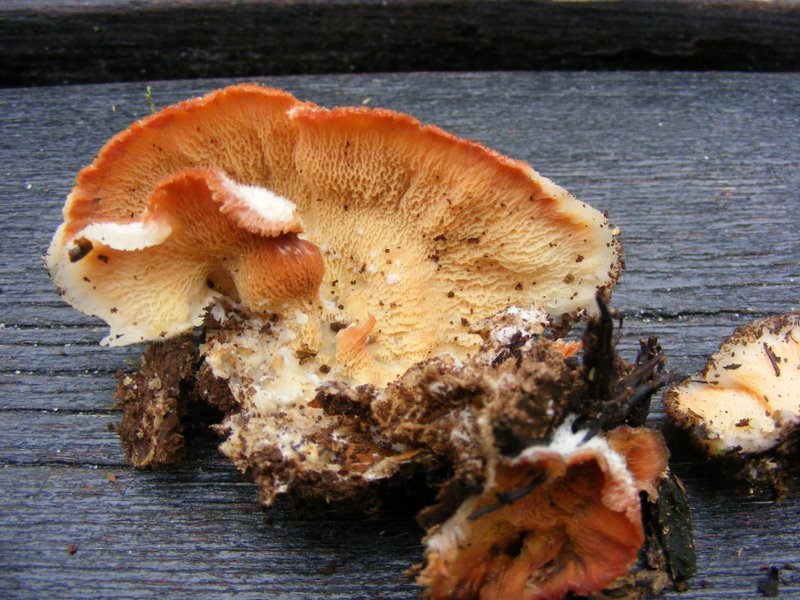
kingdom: Fungi
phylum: Basidiomycota
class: Agaricomycetes
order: Polyporales
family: Meruliaceae
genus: Phlebia
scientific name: Phlebia tremellosa
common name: bævrende åresvamp
